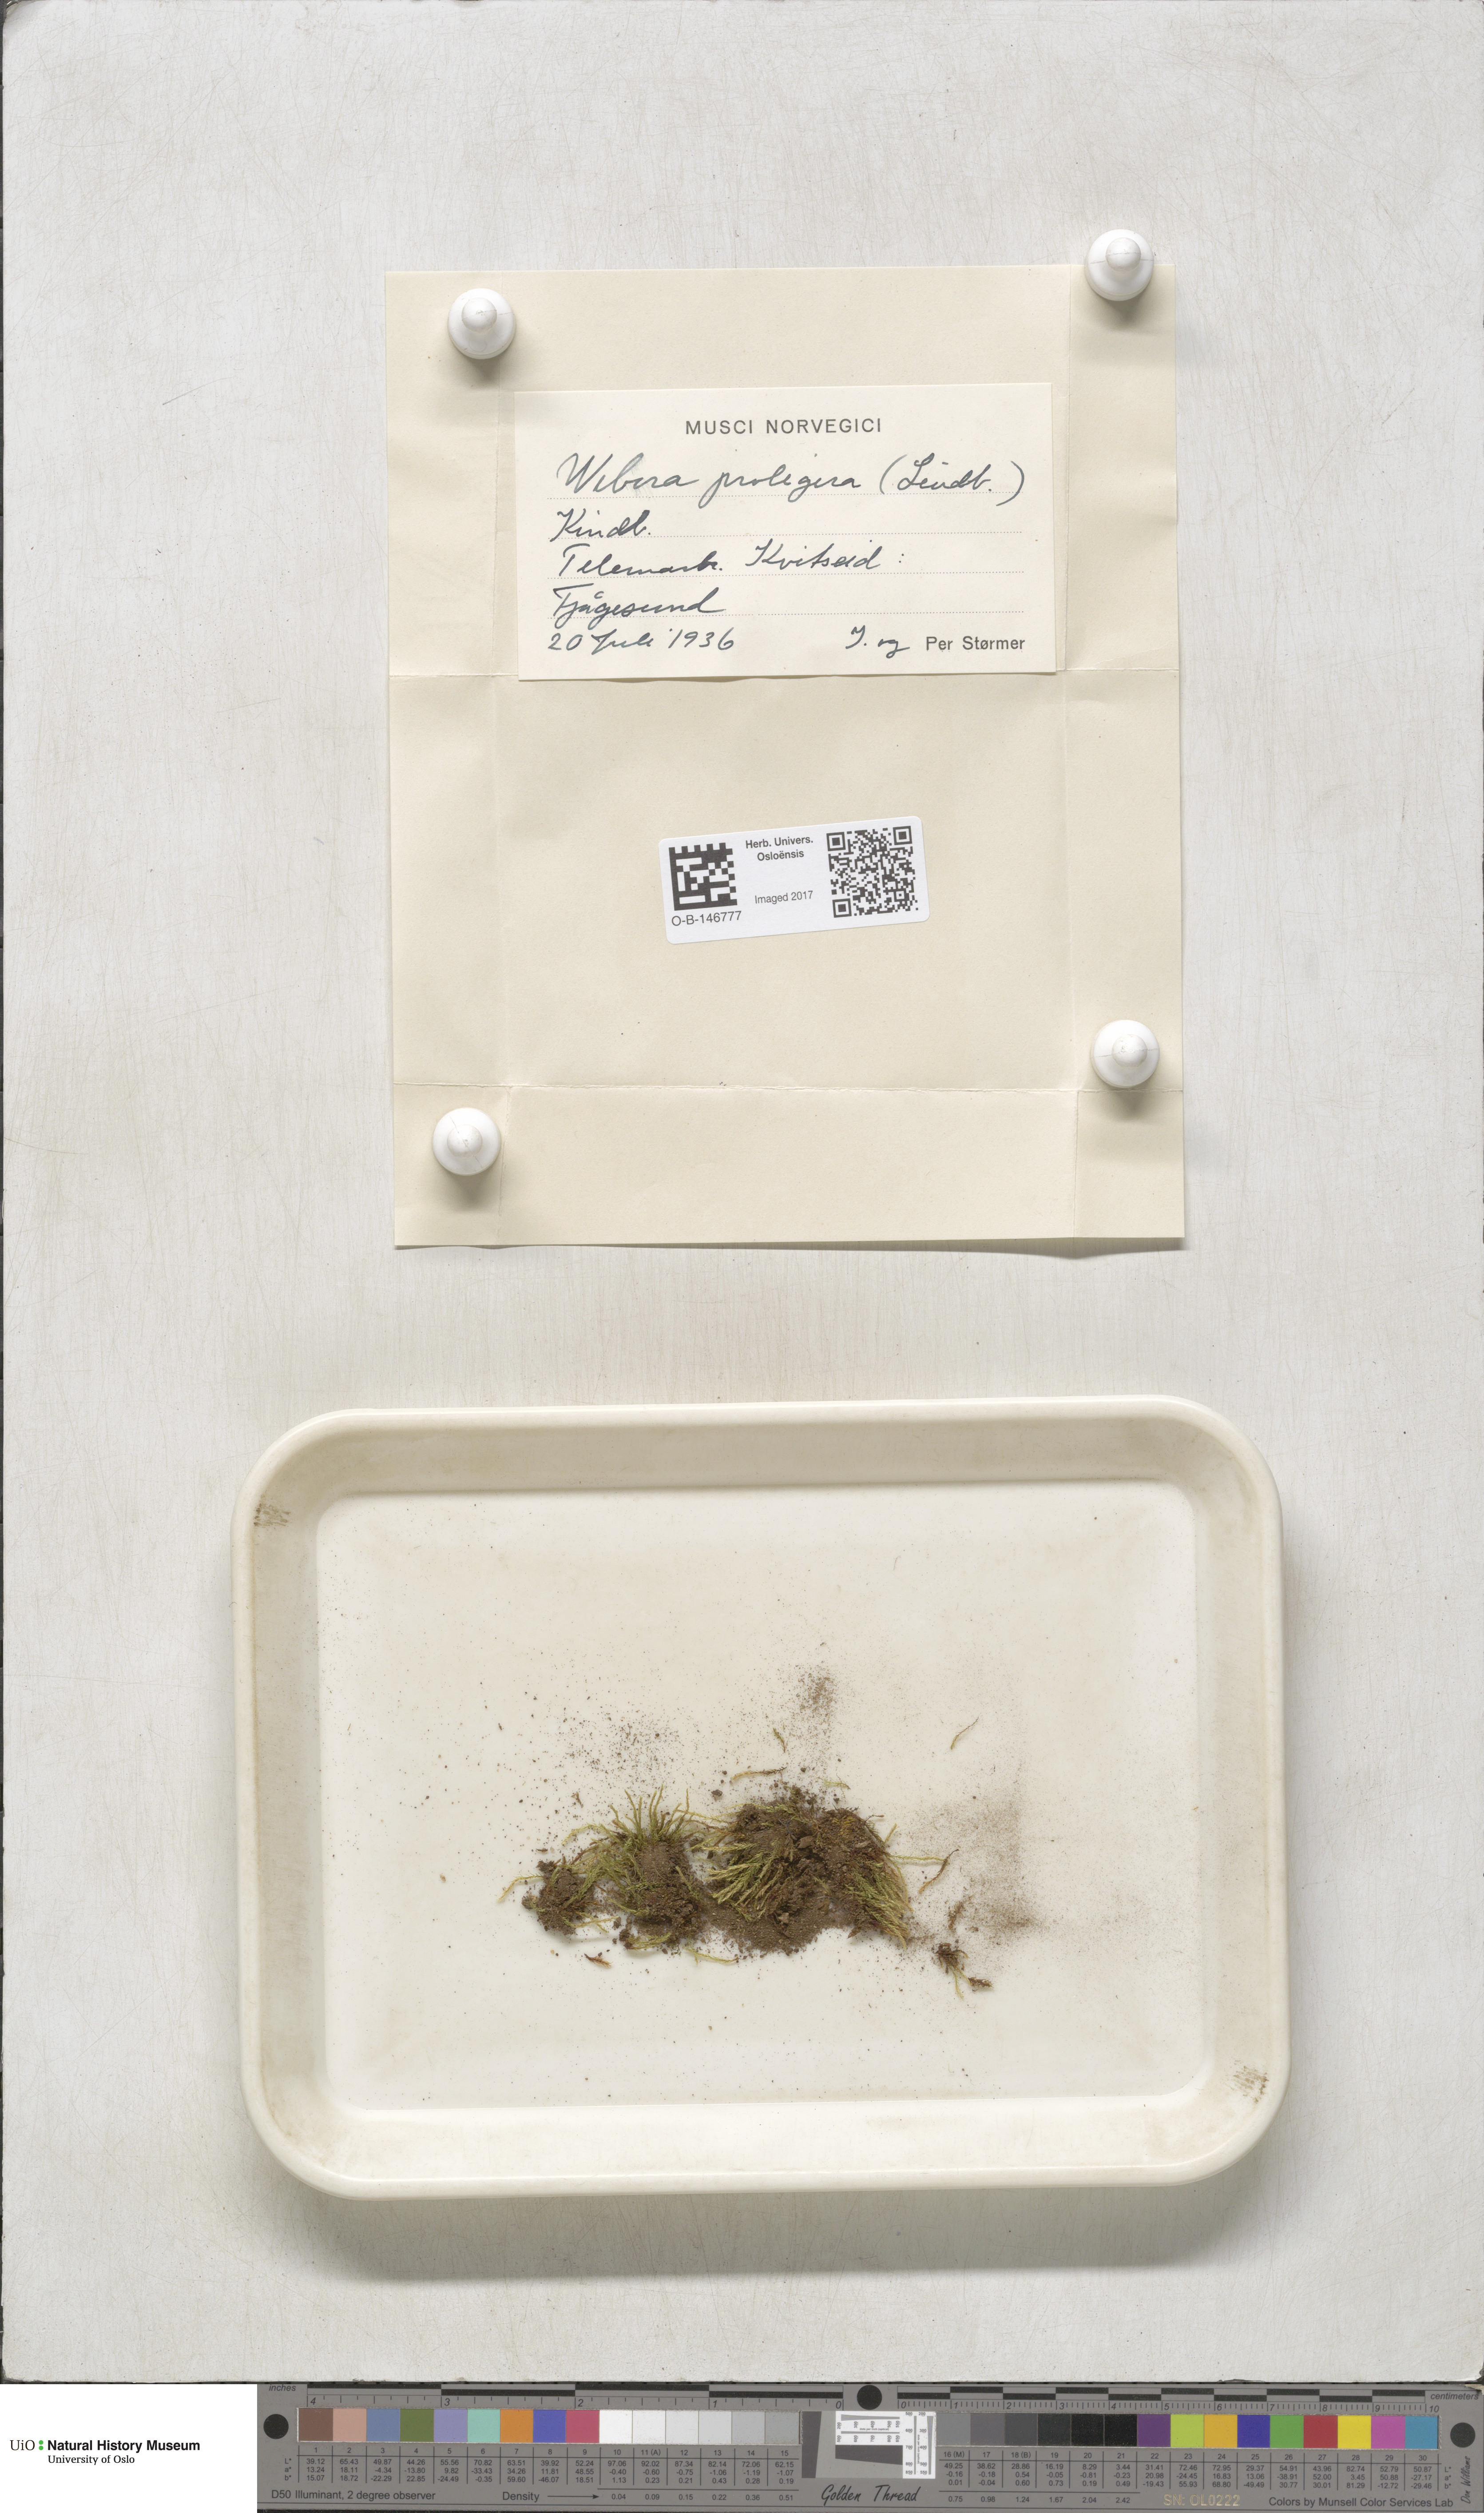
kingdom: Plantae
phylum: Bryophyta
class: Bryopsida
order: Bryales
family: Mniaceae
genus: Pohlia
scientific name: Pohlia proligera
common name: Cottony nodding moss
